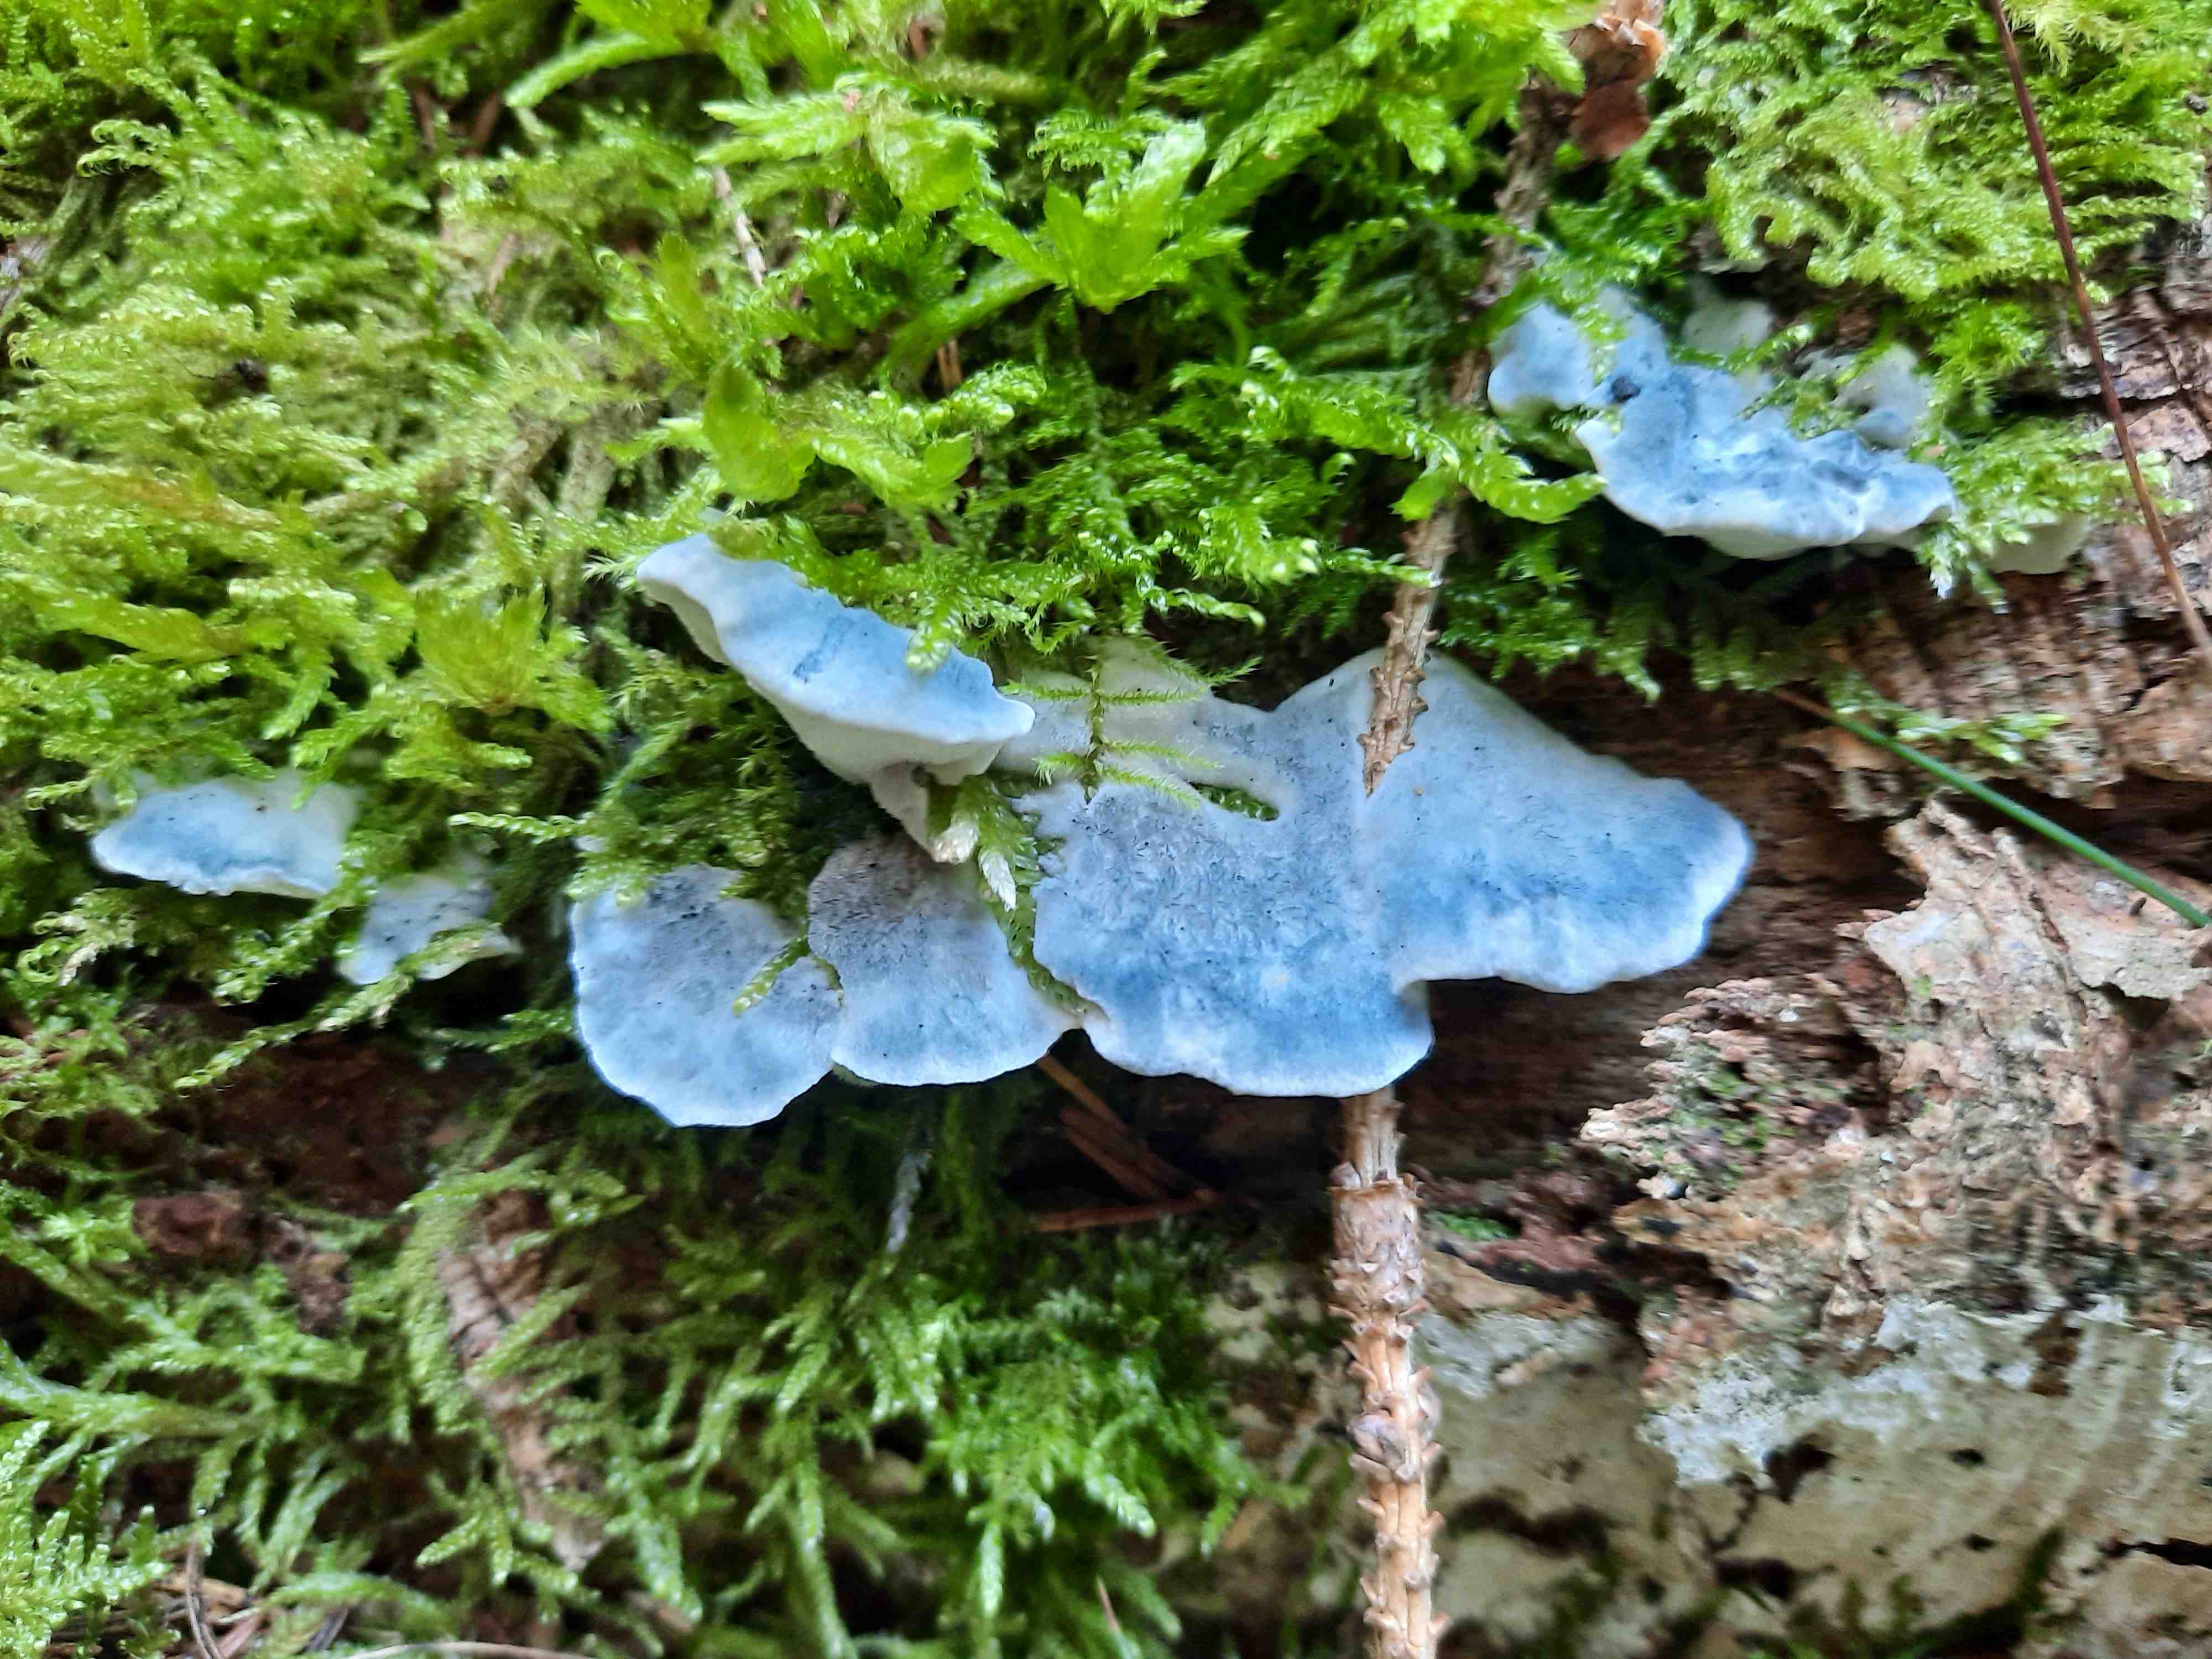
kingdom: Fungi
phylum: Basidiomycota
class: Agaricomycetes
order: Polyporales
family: Polyporaceae
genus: Cyanosporus
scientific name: Cyanosporus caesius
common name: blålig kødporesvamp
